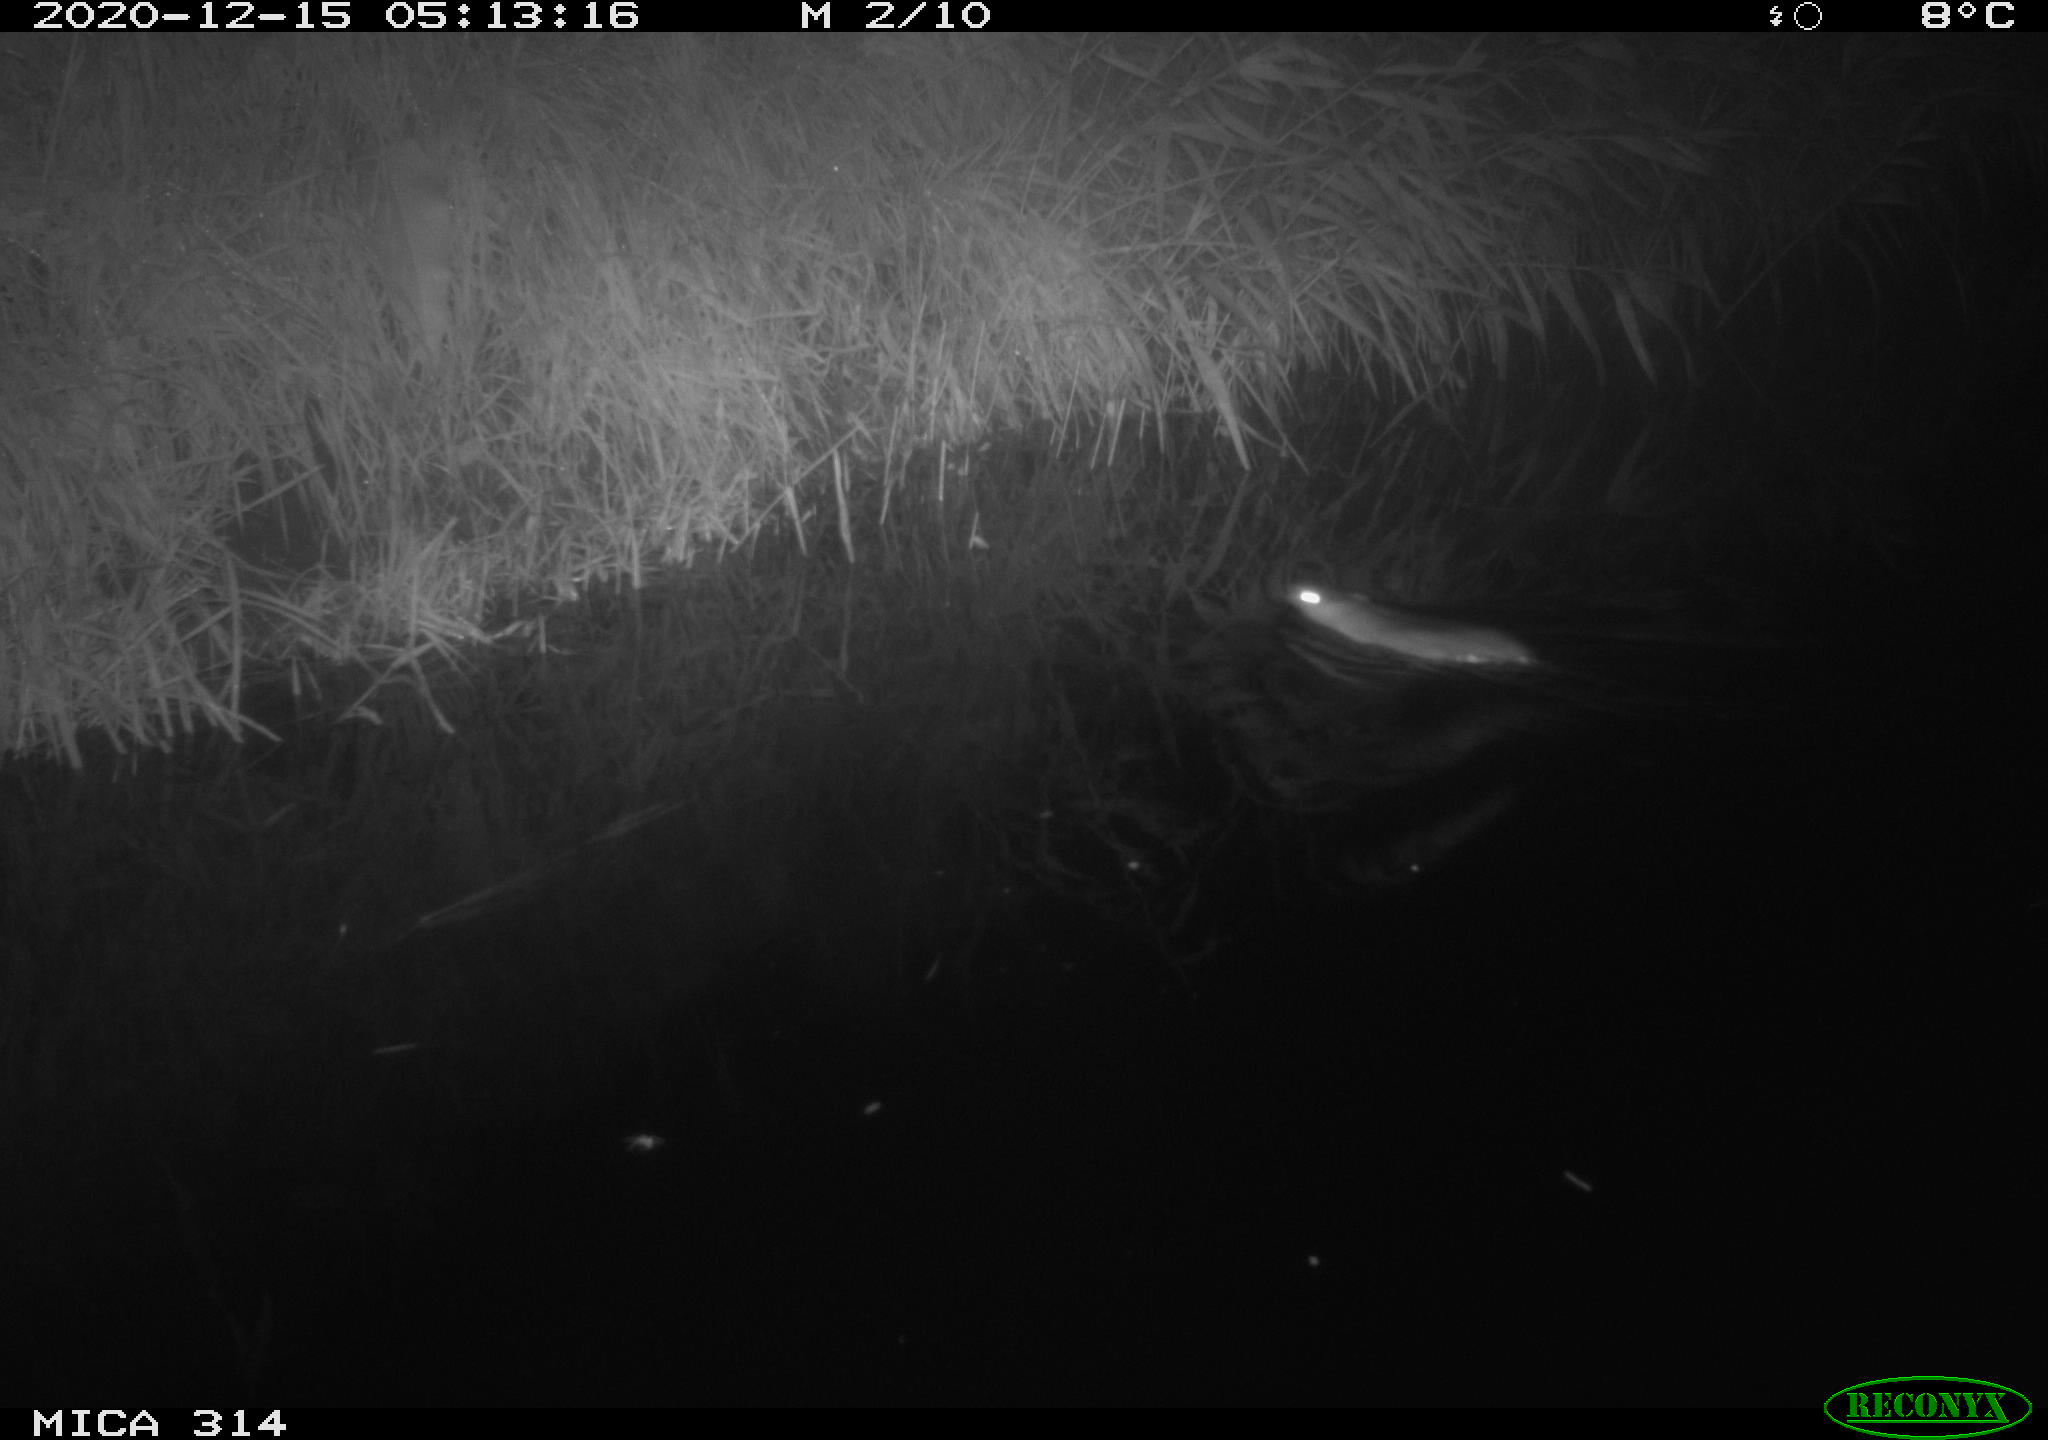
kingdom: Animalia
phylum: Chordata
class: Mammalia
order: Rodentia
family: Muridae
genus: Rattus
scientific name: Rattus norvegicus
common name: Brown rat
